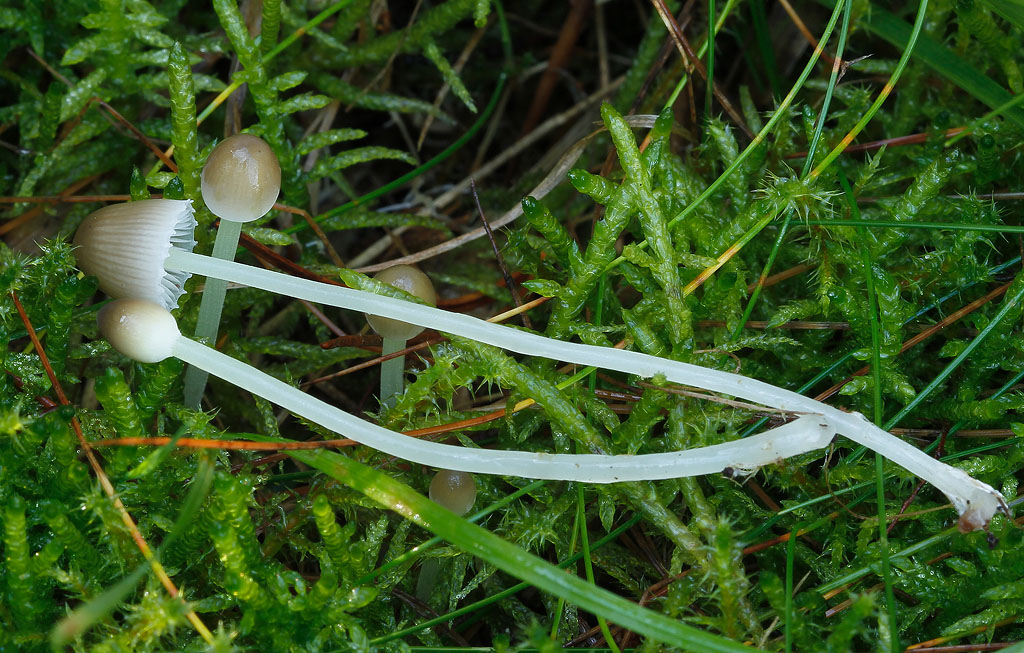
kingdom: Fungi
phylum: Basidiomycota
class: Agaricomycetes
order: Agaricales
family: Mycenaceae
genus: Mycena
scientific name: Mycena epipterygia
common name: gulstokket huesvamp
